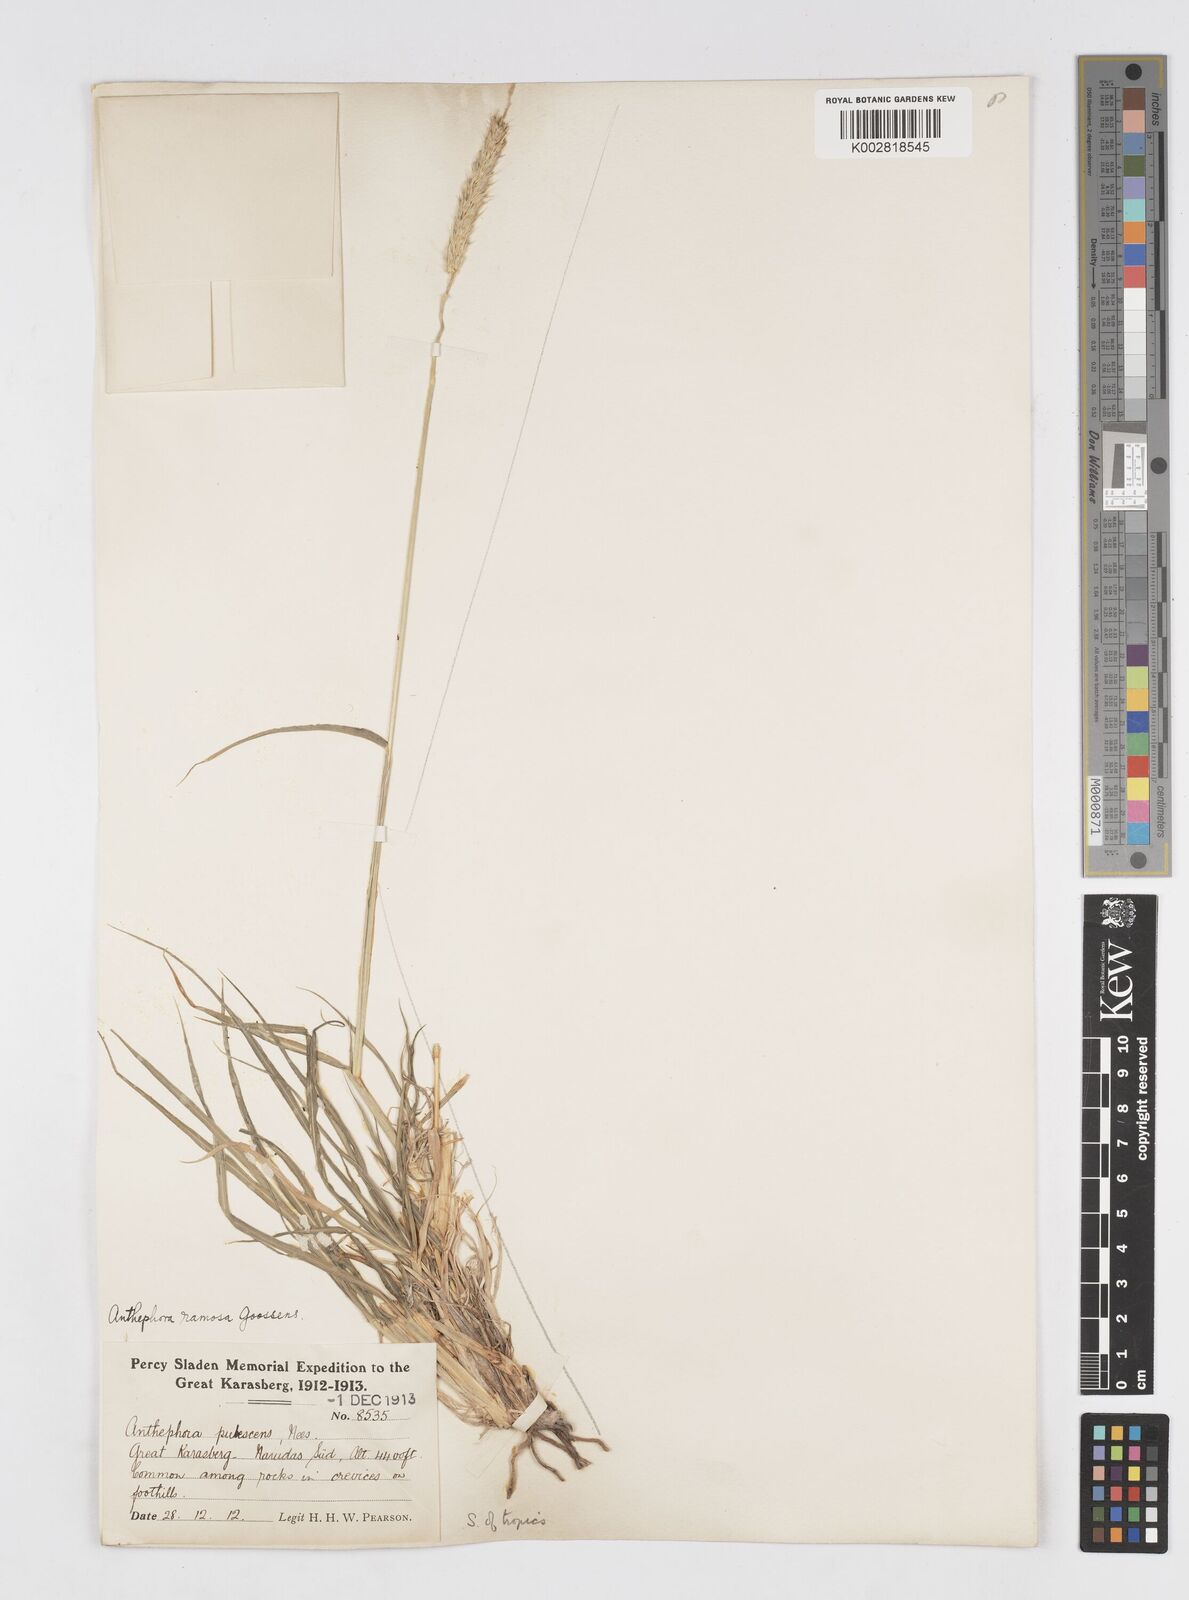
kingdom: Plantae
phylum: Tracheophyta
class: Liliopsida
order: Poales
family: Poaceae
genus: Anthephora
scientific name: Anthephora pubescens
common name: Wool grass
